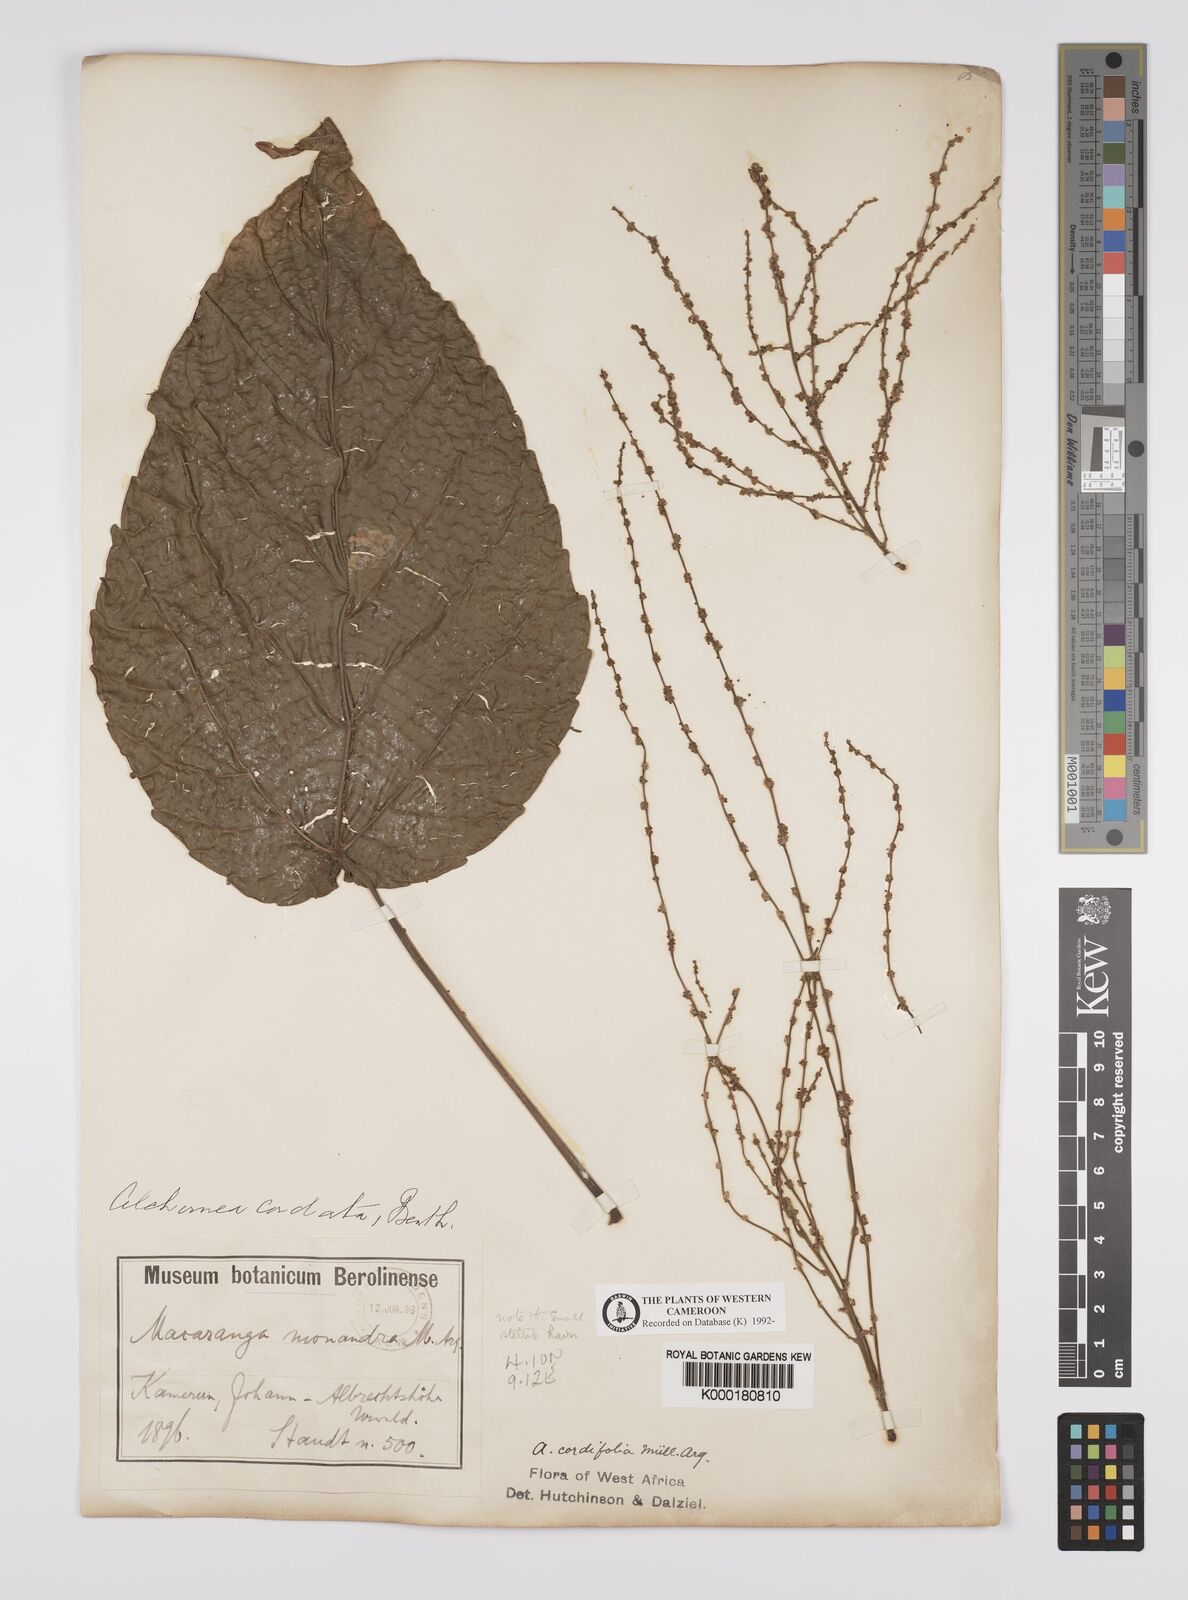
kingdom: Plantae
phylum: Tracheophyta
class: Magnoliopsida
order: Malpighiales
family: Euphorbiaceae
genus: Alchornea
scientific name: Alchornea
